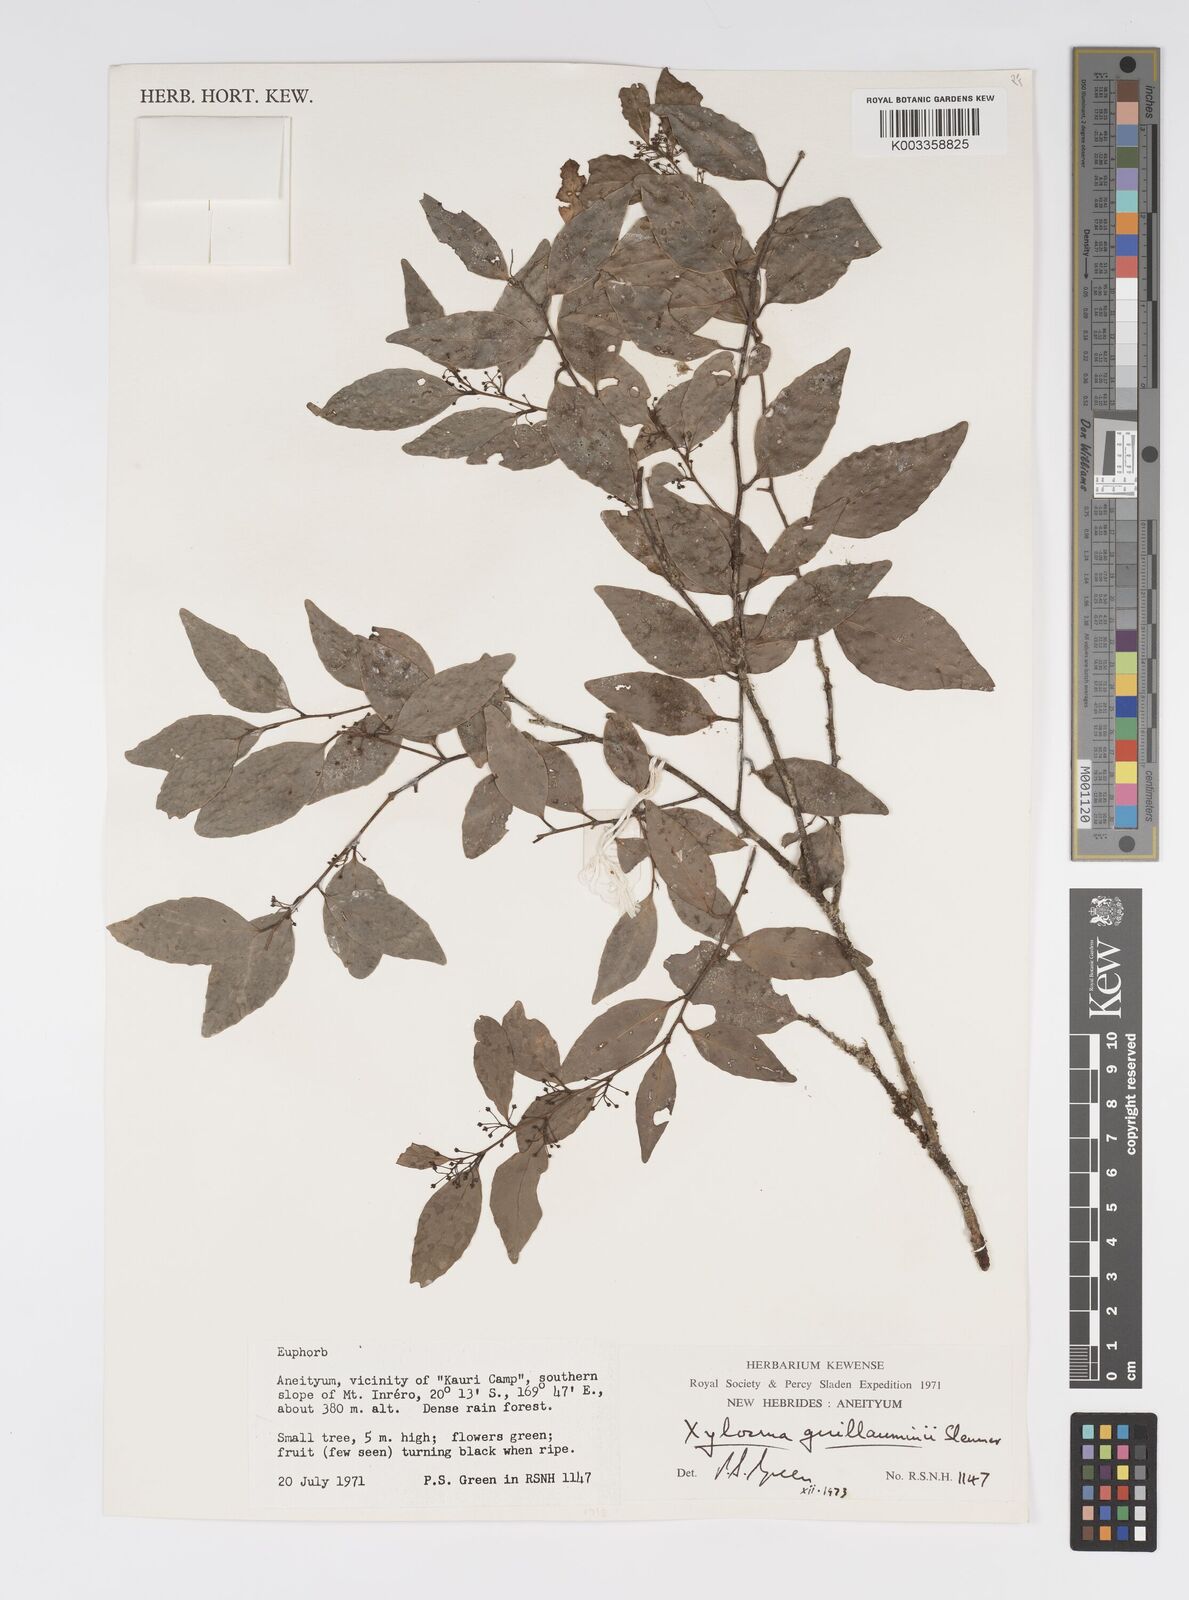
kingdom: Plantae
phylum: Tracheophyta
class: Magnoliopsida
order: Malpighiales
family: Salicaceae
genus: Xylosma
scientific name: Xylosma lifuana
